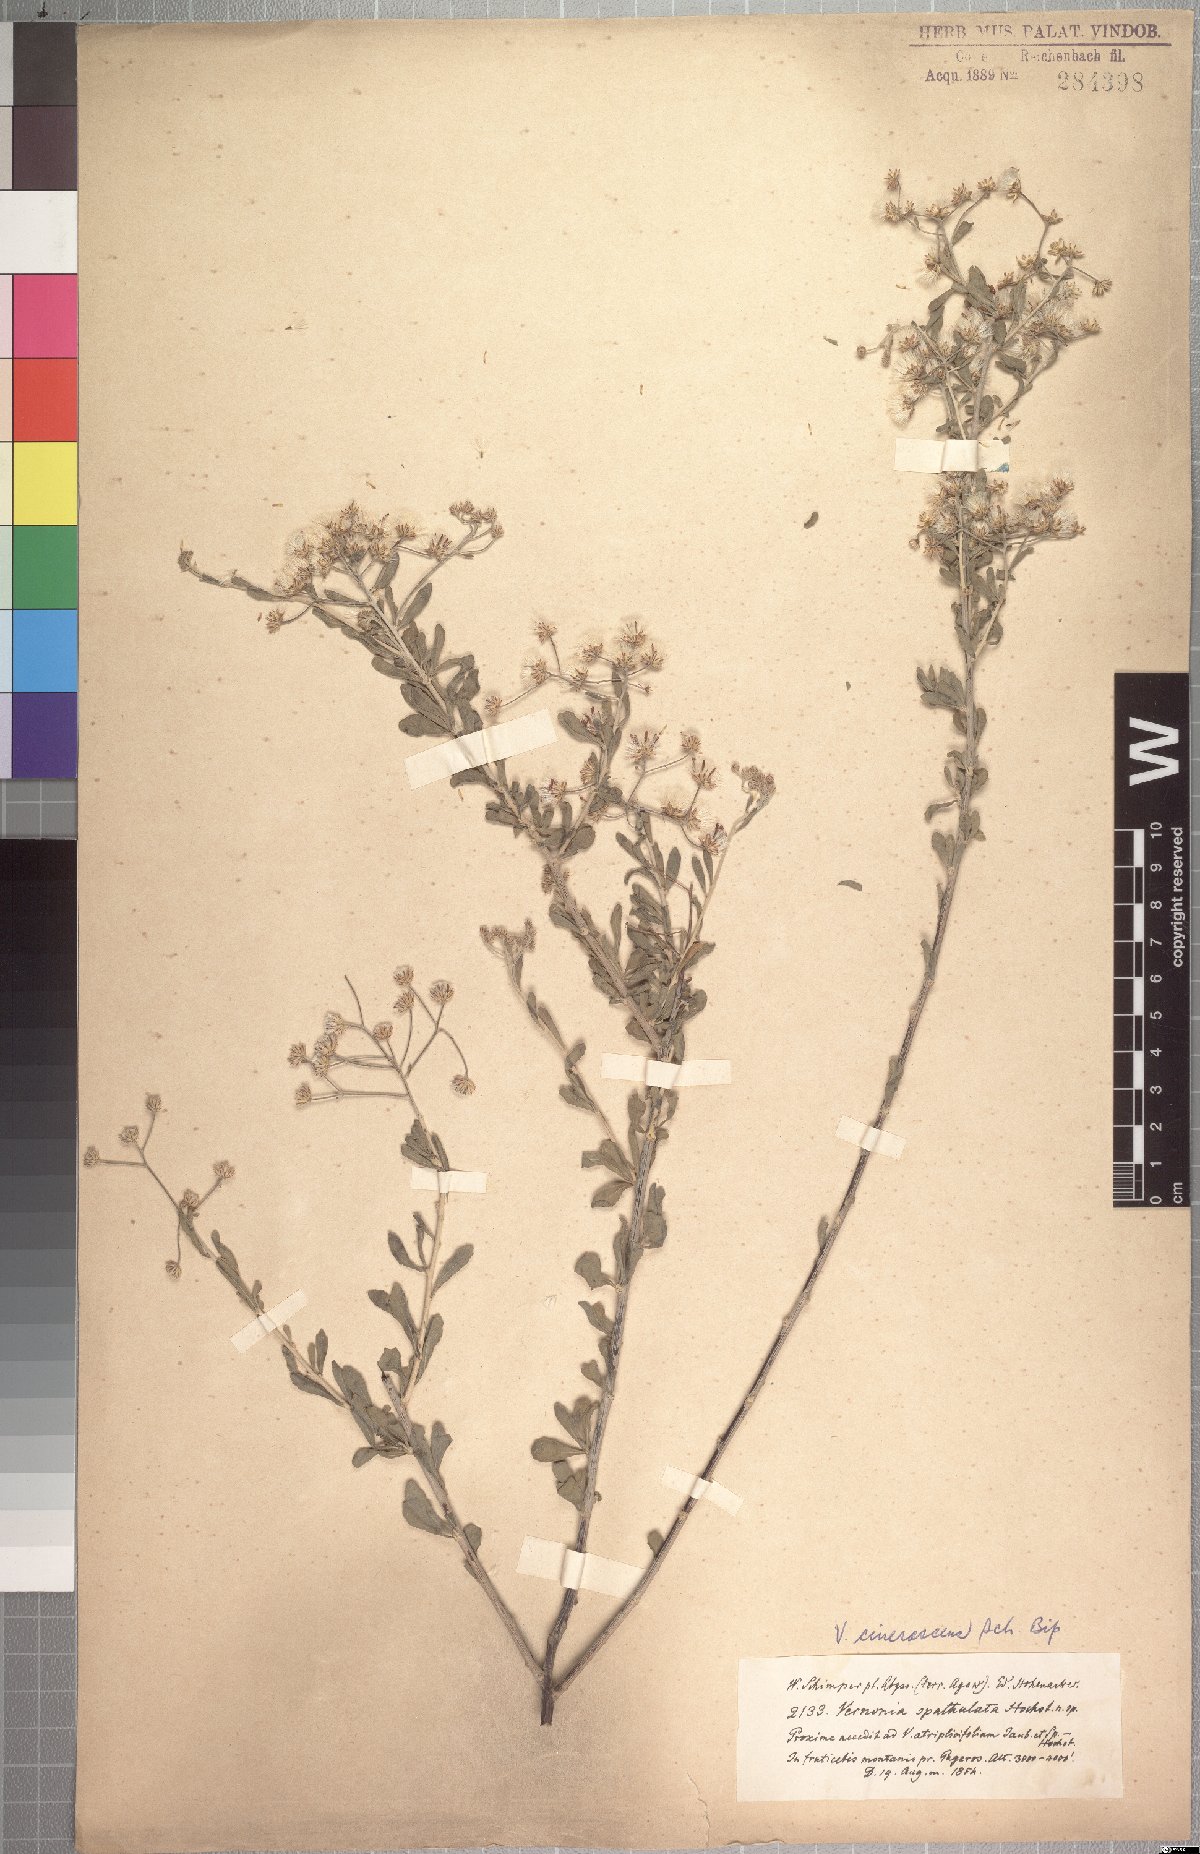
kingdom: Plantae
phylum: Tracheophyta
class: Magnoliopsida
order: Asterales
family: Asteraceae
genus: Orbivestus
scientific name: Orbivestus cinerascens
